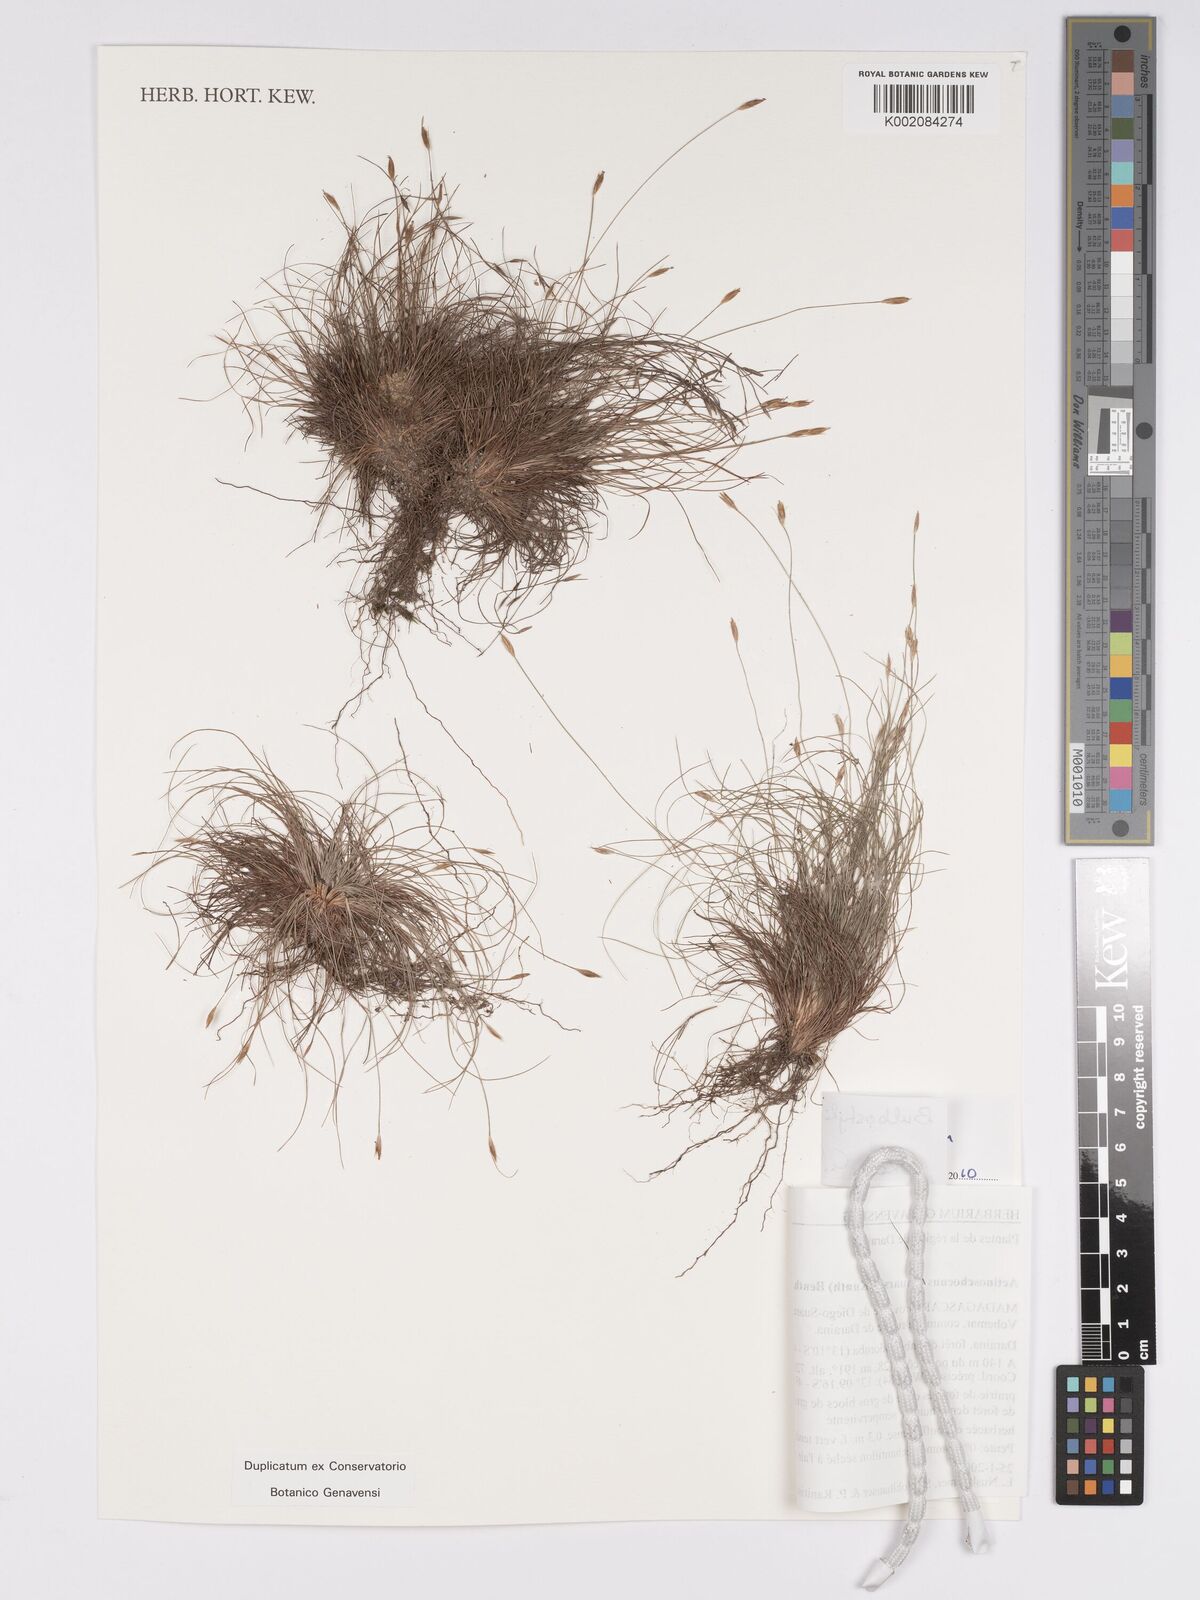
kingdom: Plantae
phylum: Tracheophyta
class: Liliopsida
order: Poales
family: Cyperaceae
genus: Bulbostylis
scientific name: Bulbostylis festucoides
